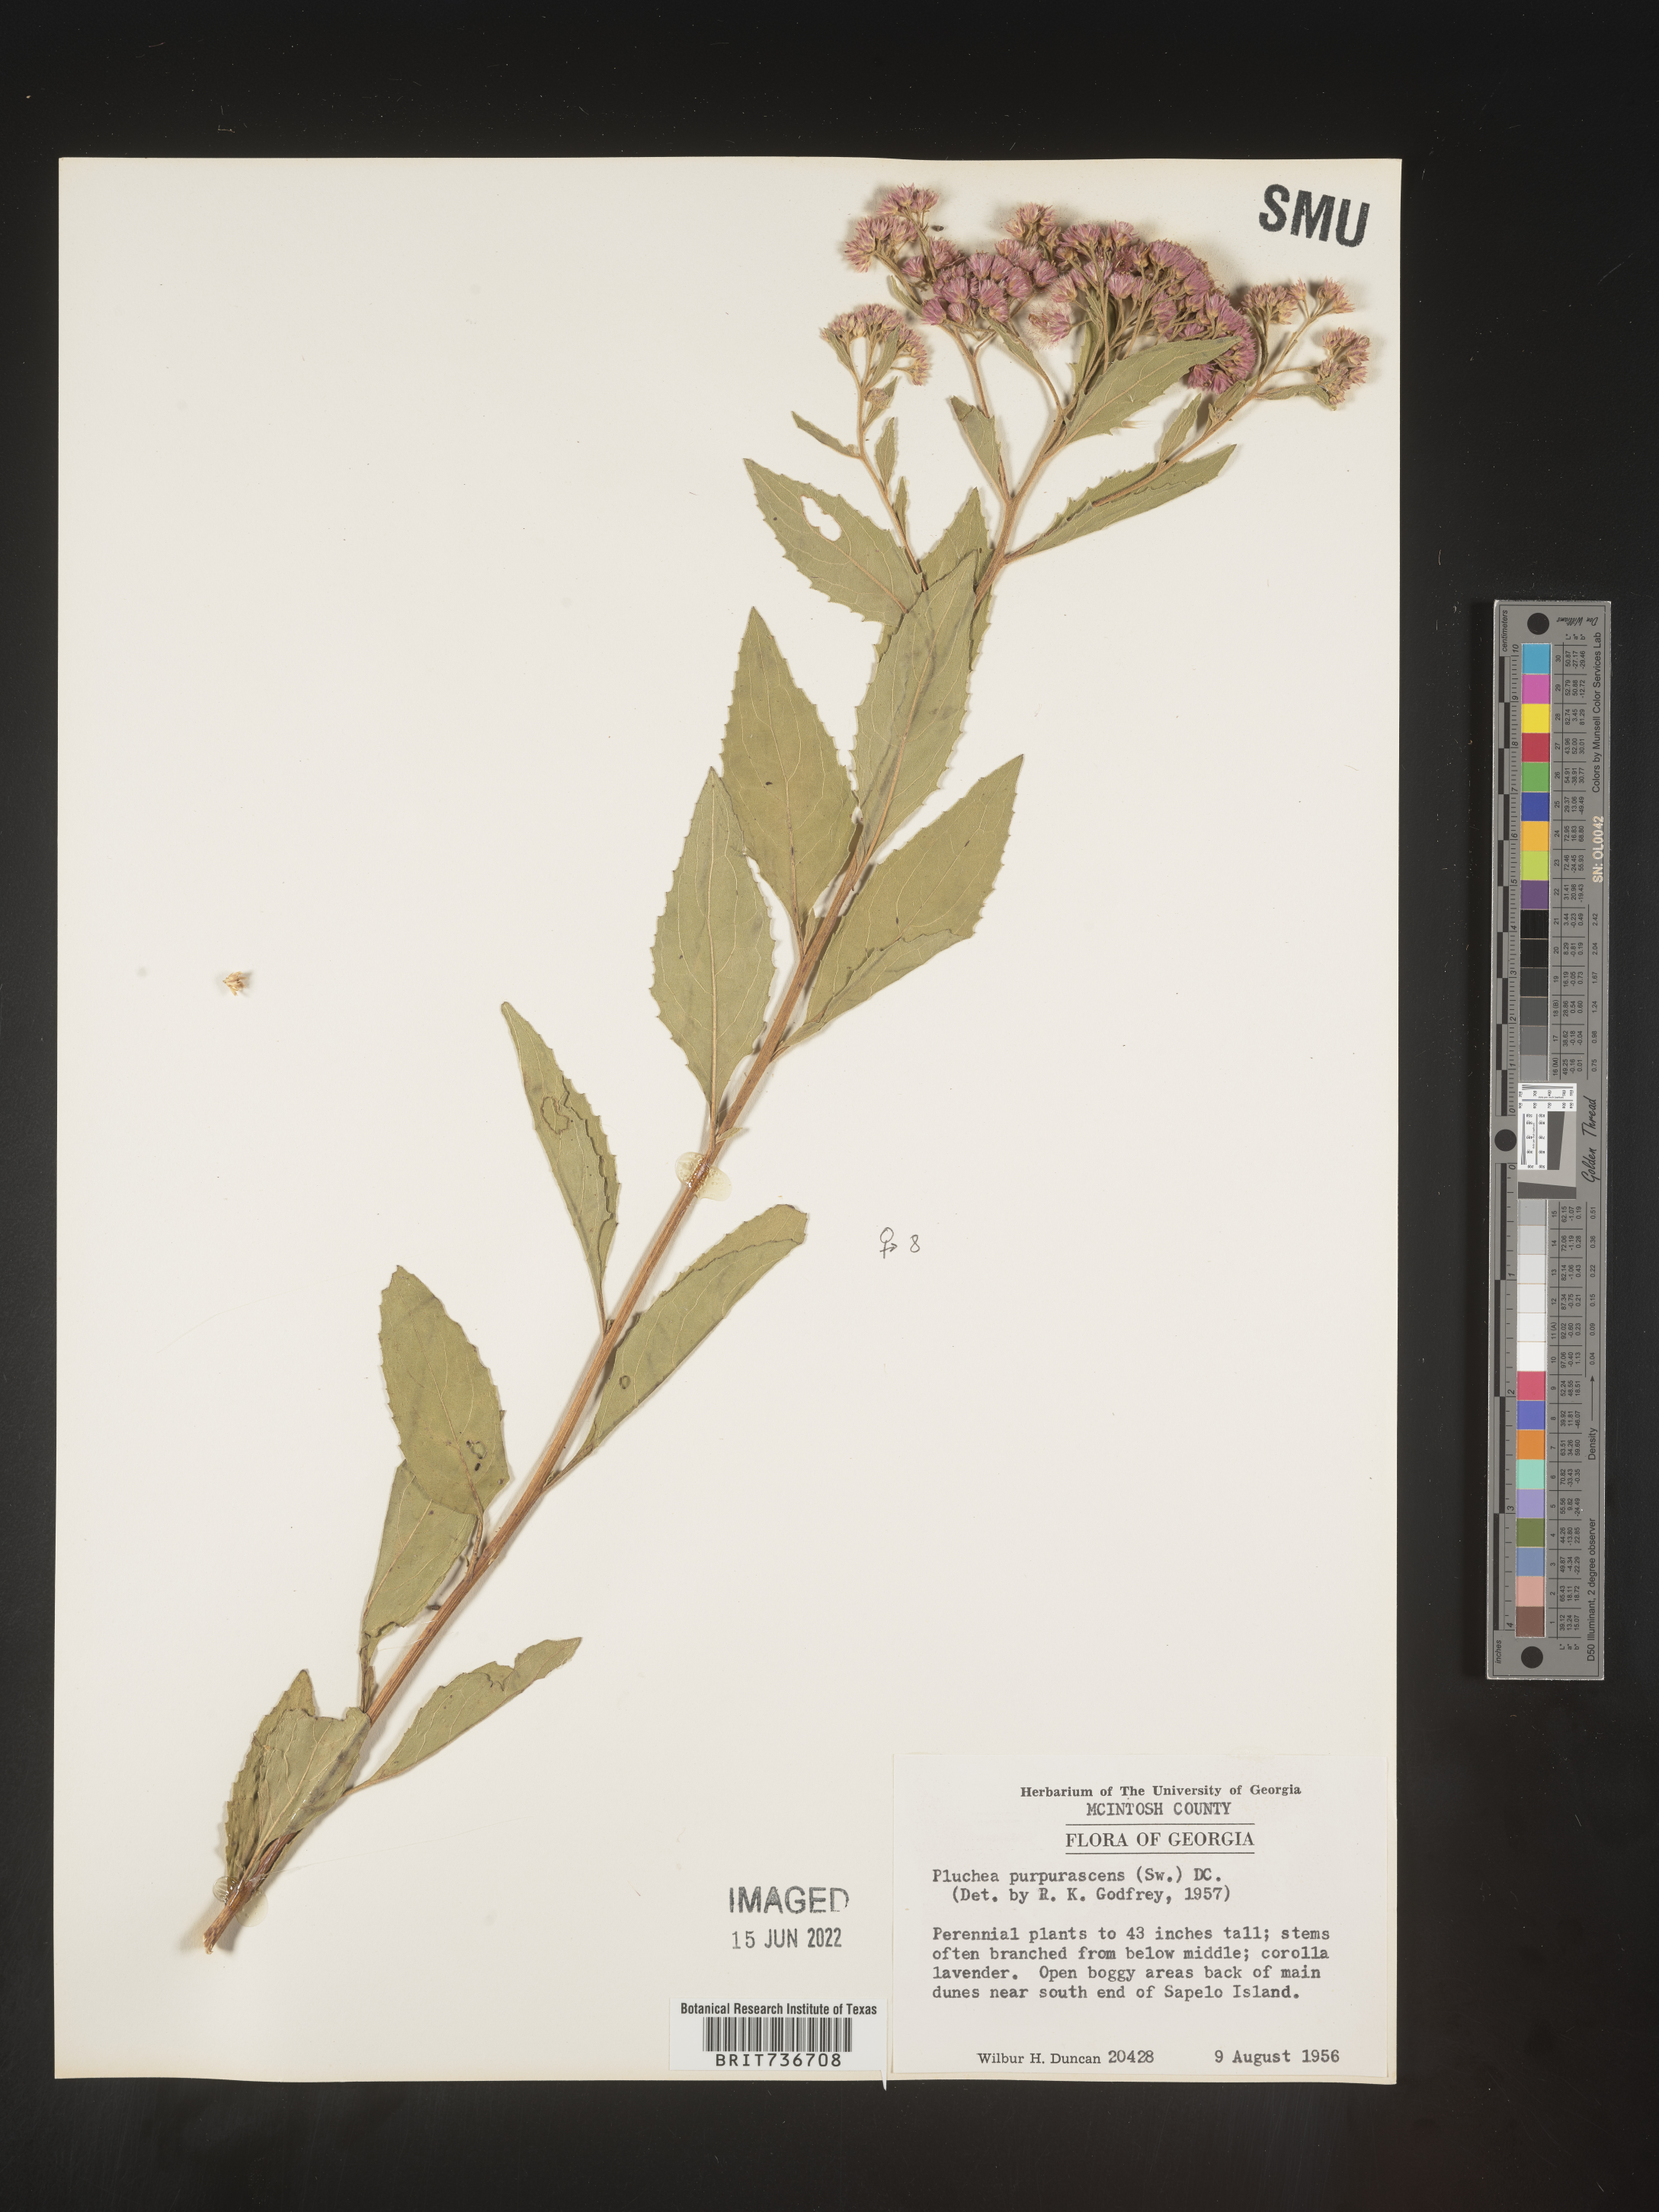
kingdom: Plantae
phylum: Tracheophyta
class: Magnoliopsida
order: Asterales
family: Asteraceae
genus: Pluchea
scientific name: Pluchea odorata
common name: Saltmarsh fleabane
